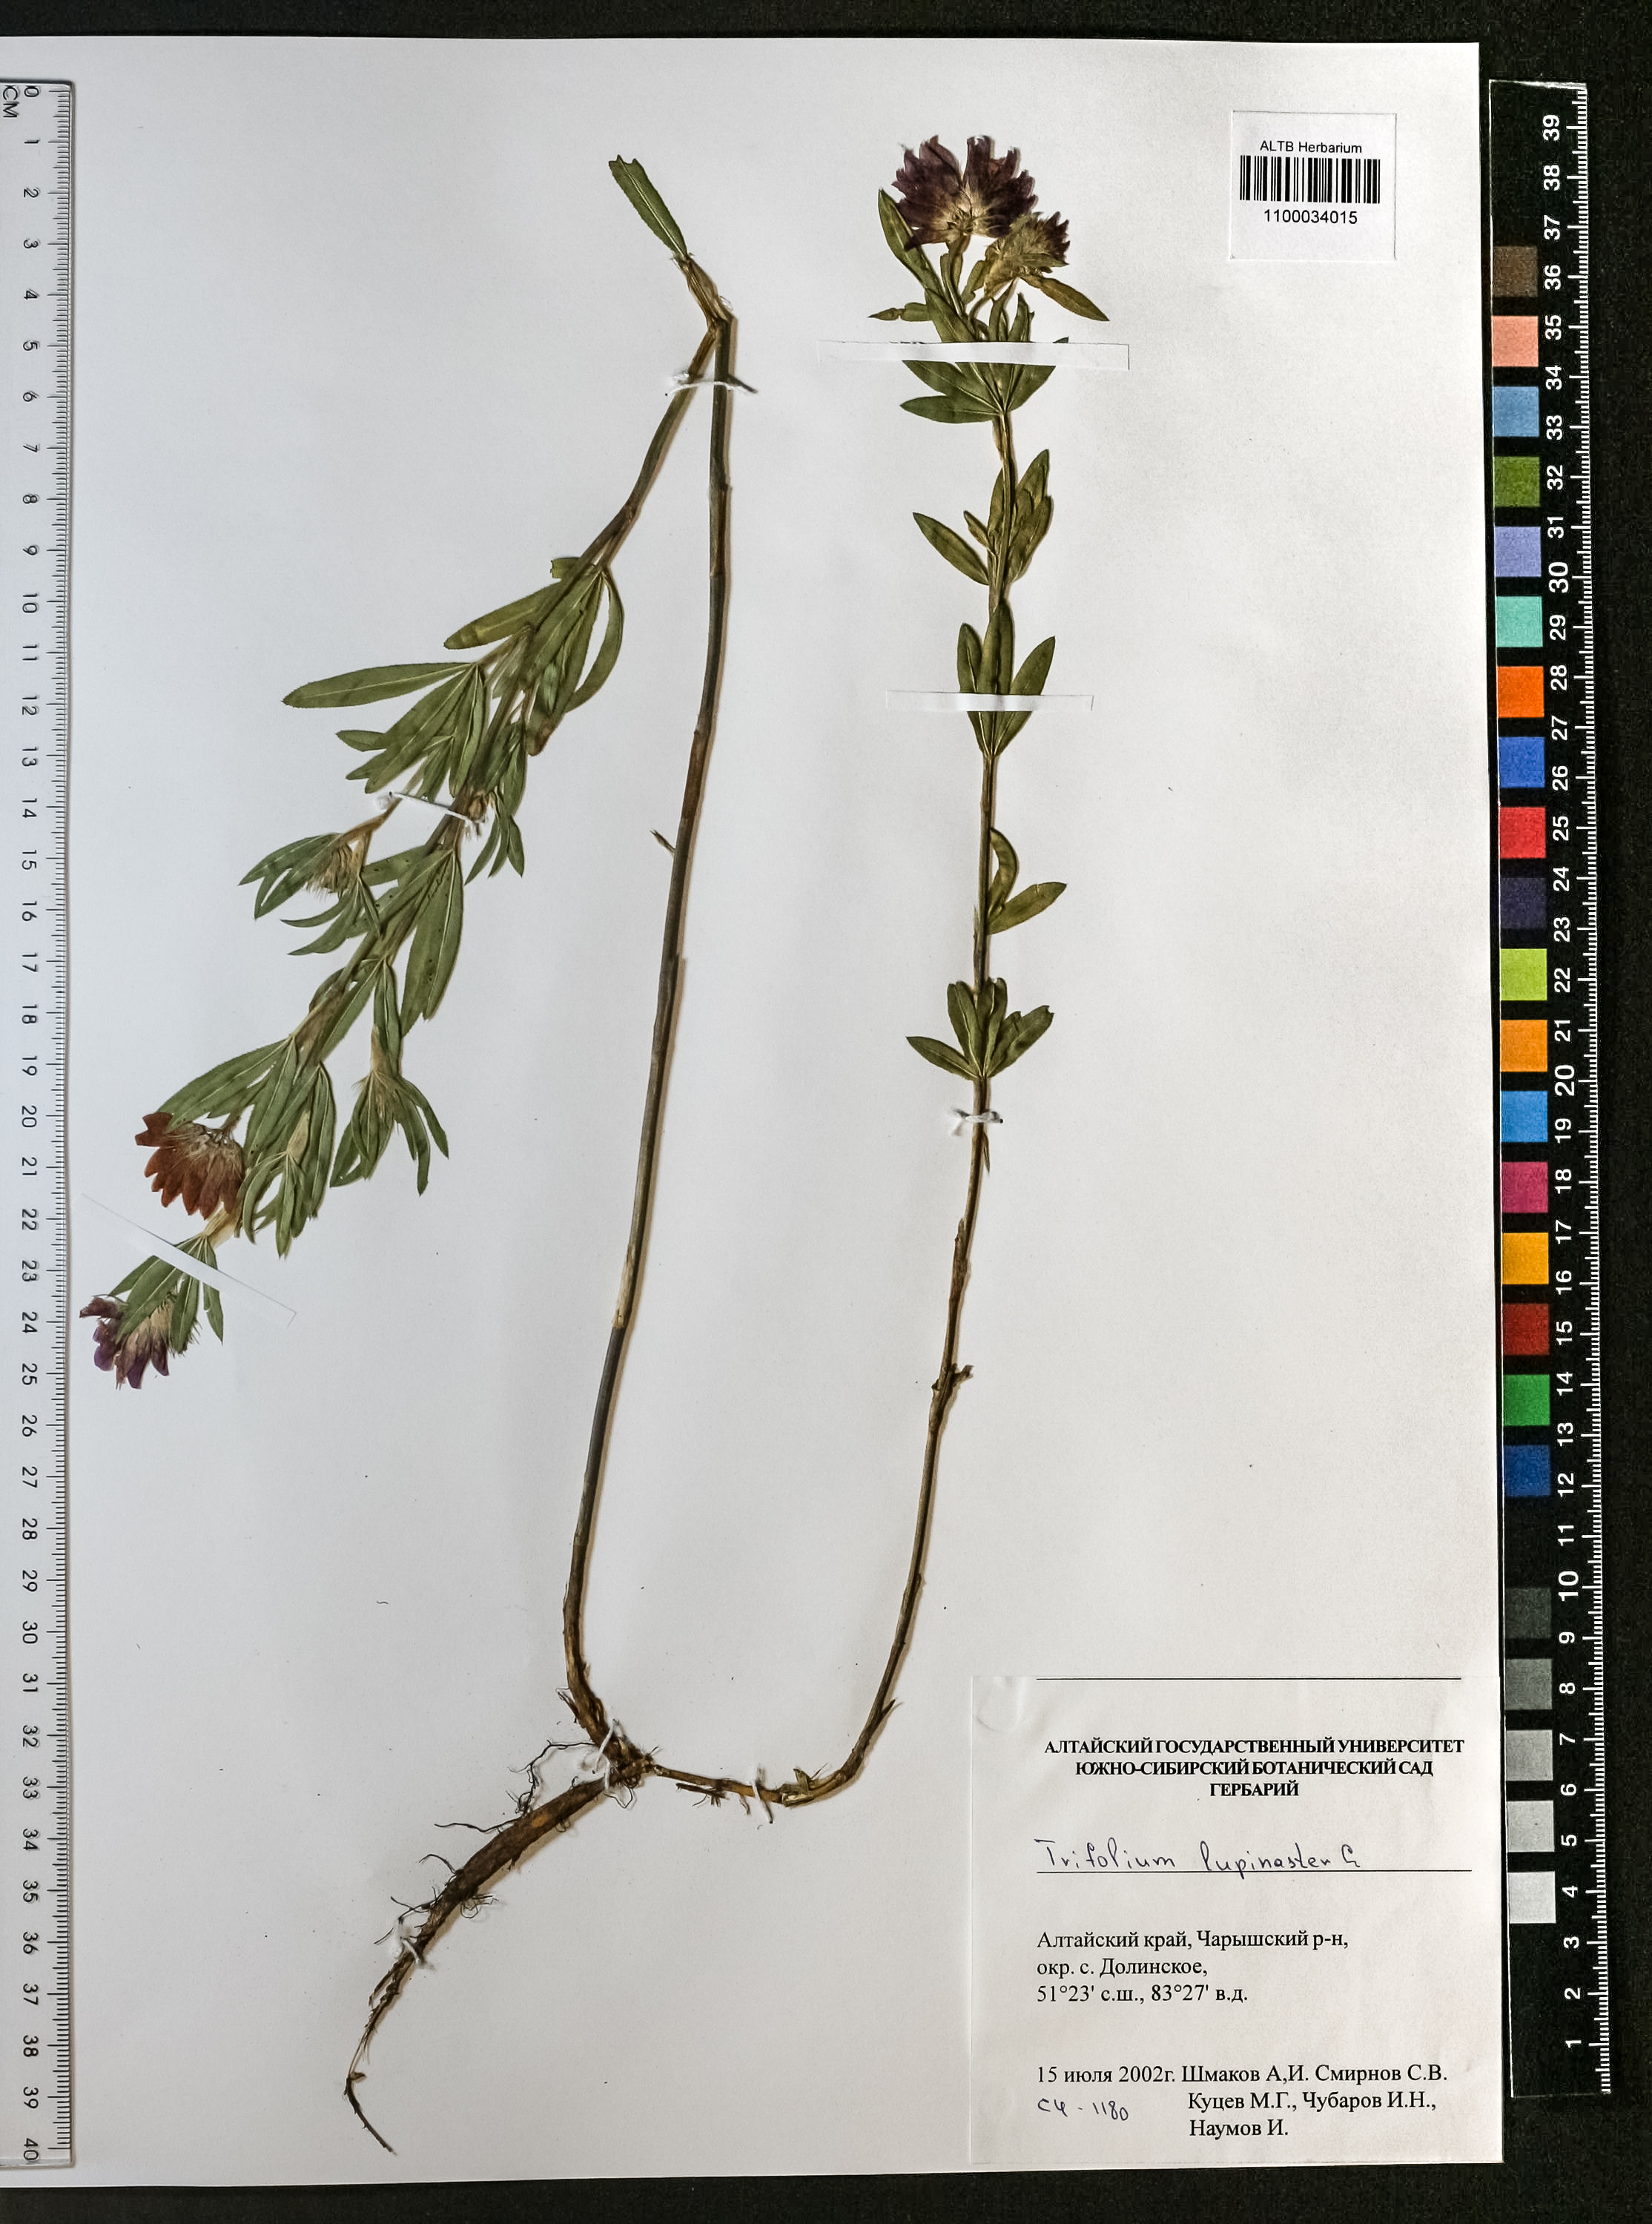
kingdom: Plantae
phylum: Tracheophyta
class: Magnoliopsida
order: Fabales
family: Fabaceae
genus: Trifolium
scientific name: Trifolium lupinaster
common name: Lupine clover
